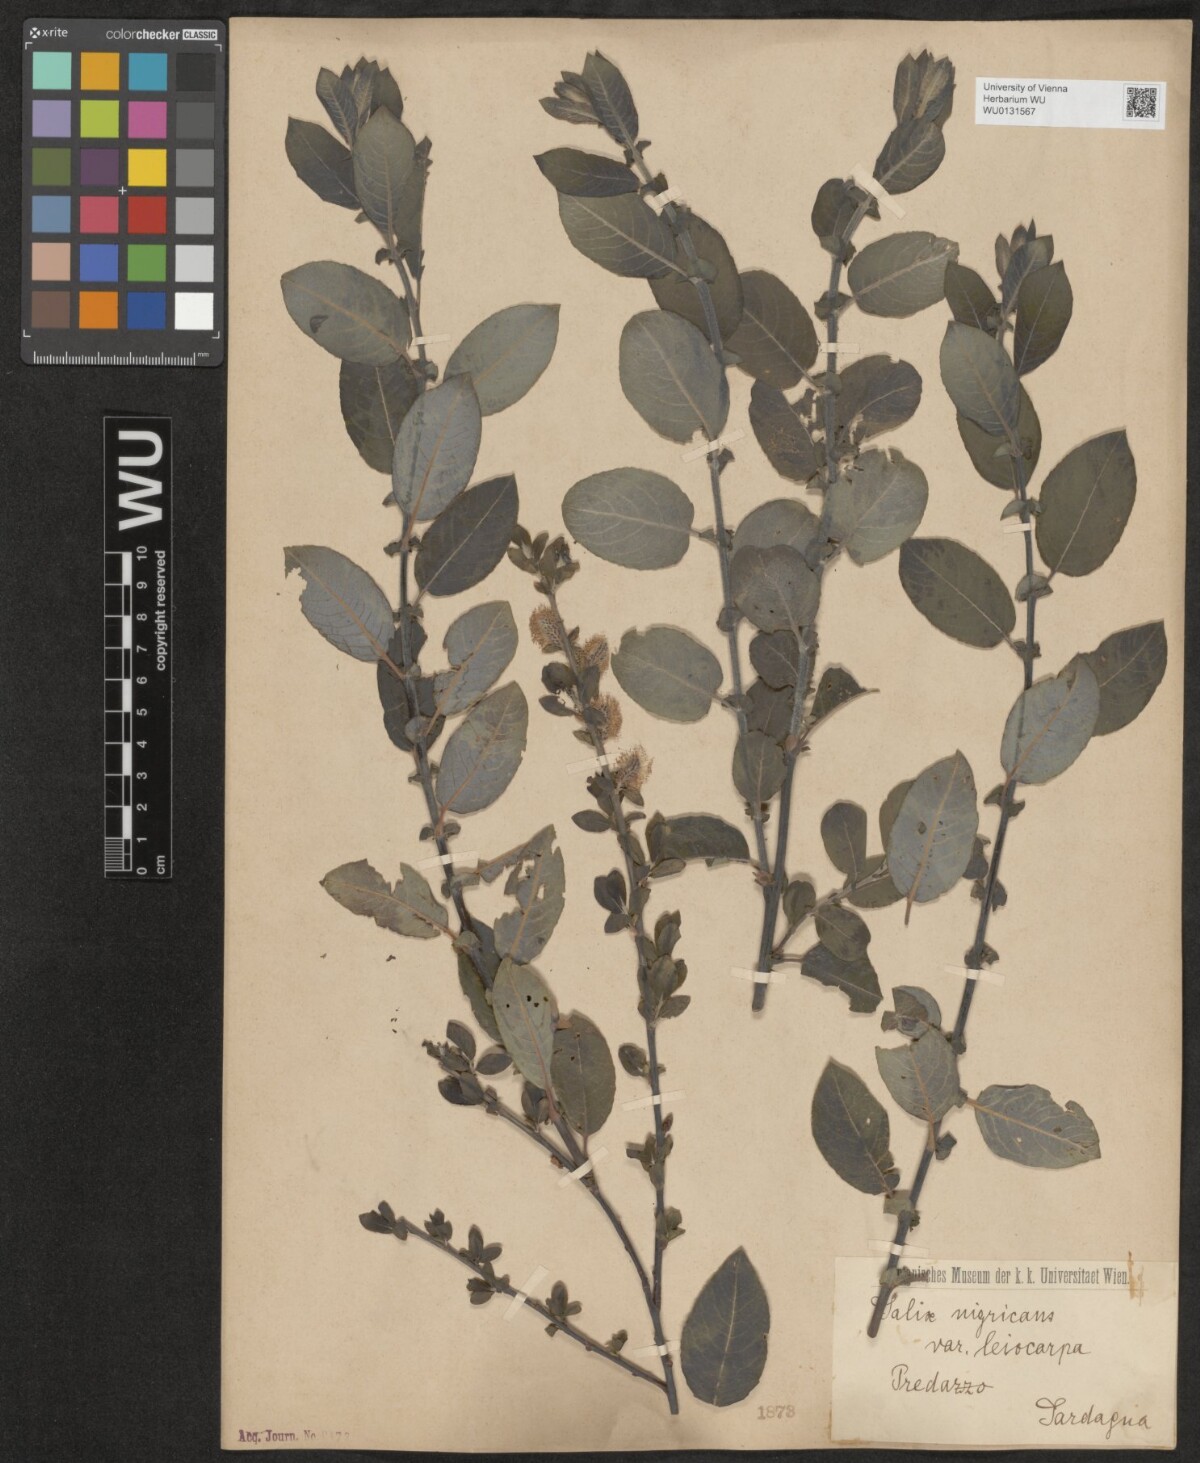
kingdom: Plantae
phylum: Tracheophyta
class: Magnoliopsida
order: Malpighiales
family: Salicaceae
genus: Salix
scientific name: Salix myrsinifolia
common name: Dark-leaved willow
